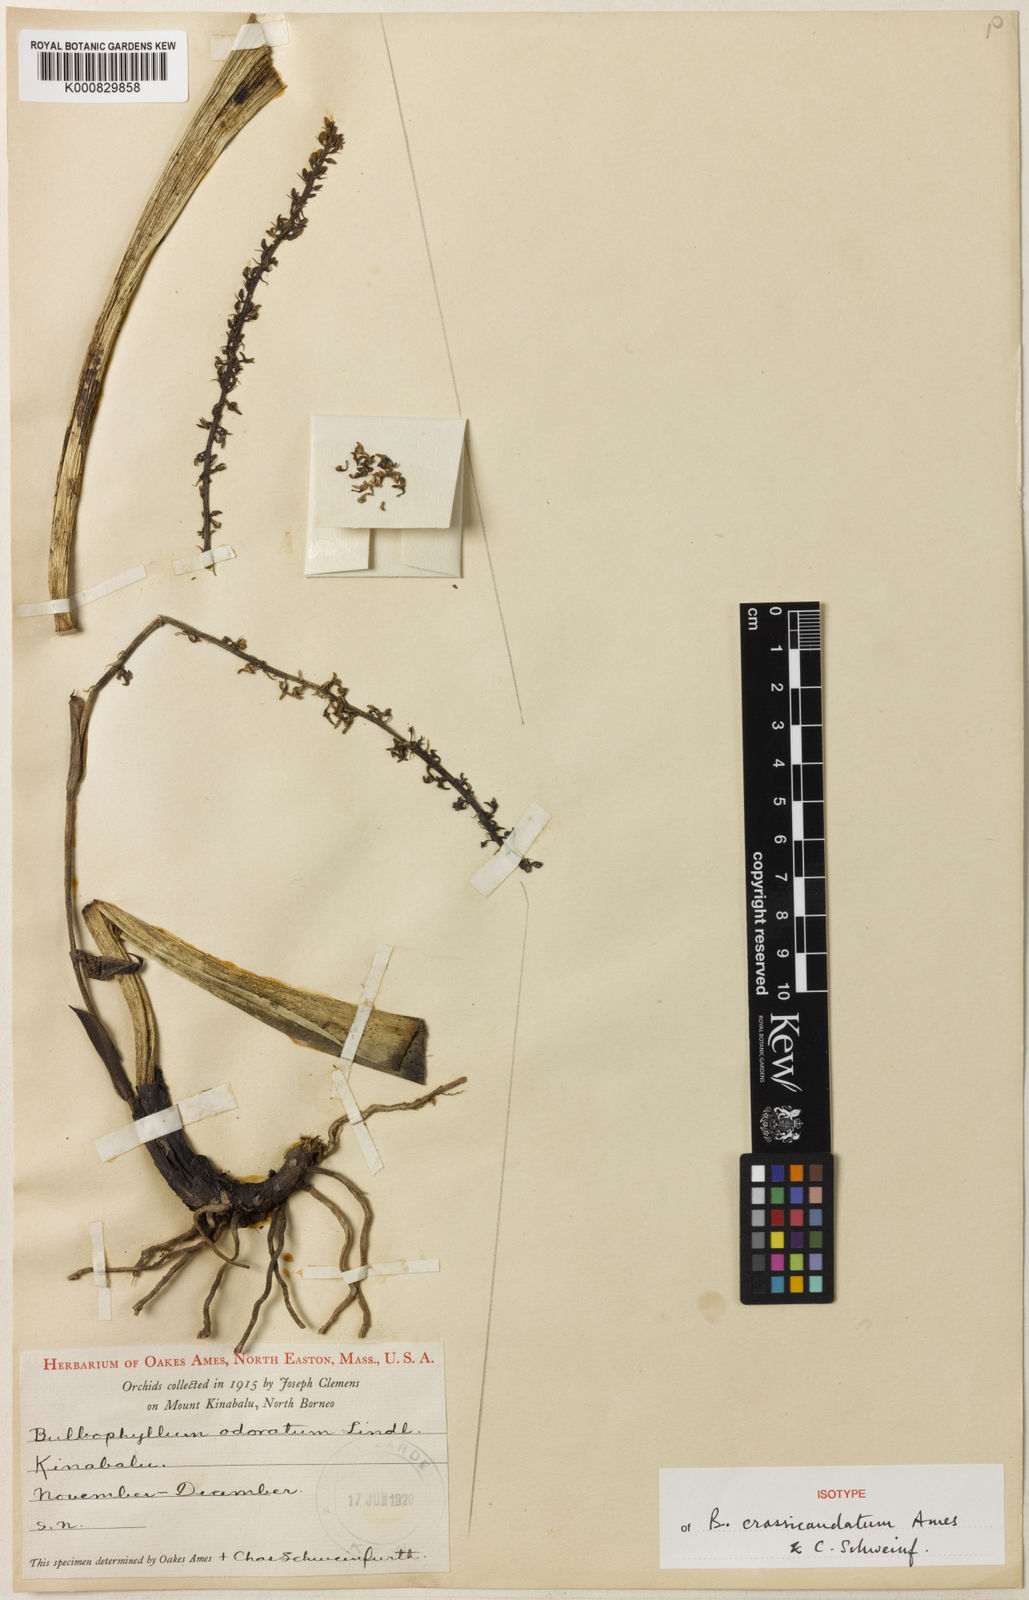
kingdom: Plantae
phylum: Tracheophyta
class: Liliopsida
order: Asparagales
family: Orchidaceae
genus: Bulbophyllum
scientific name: Bulbophyllum odoratum
